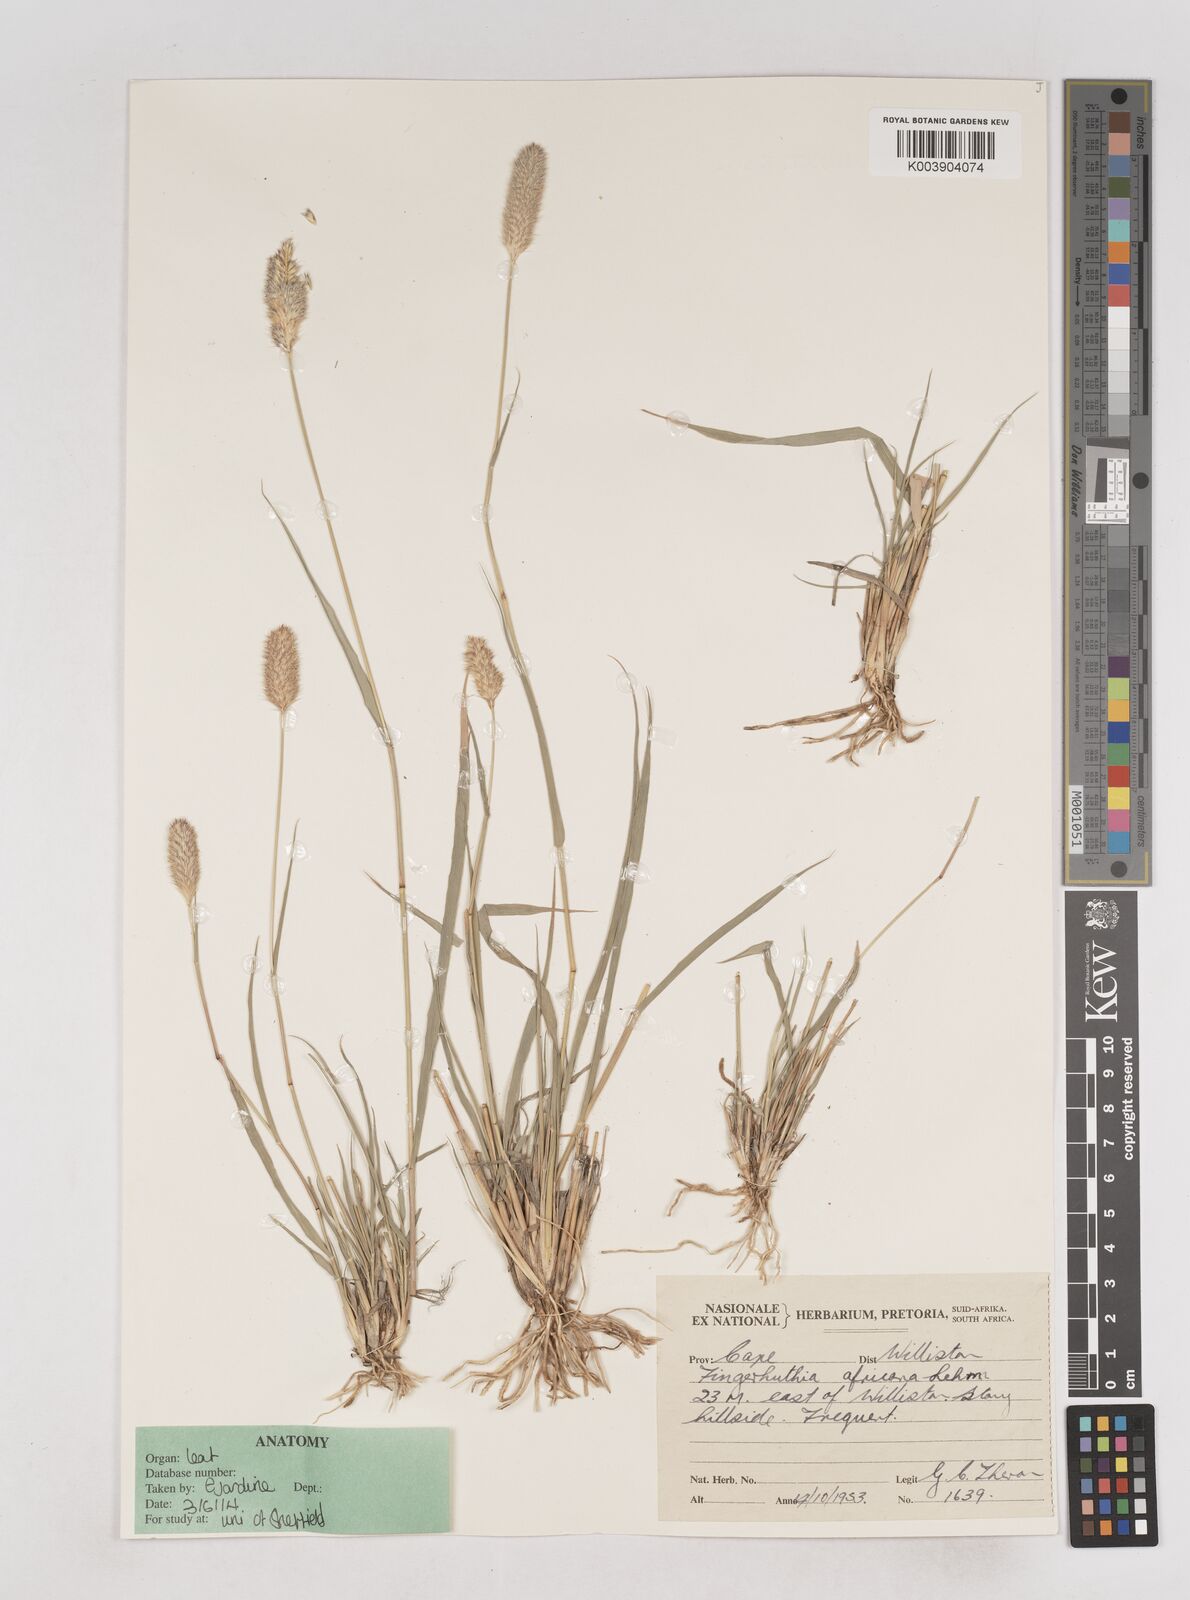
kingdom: Plantae
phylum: Tracheophyta
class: Liliopsida
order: Poales
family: Poaceae
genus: Fingerhuthia
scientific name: Fingerhuthia africana
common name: Zulu fescue
